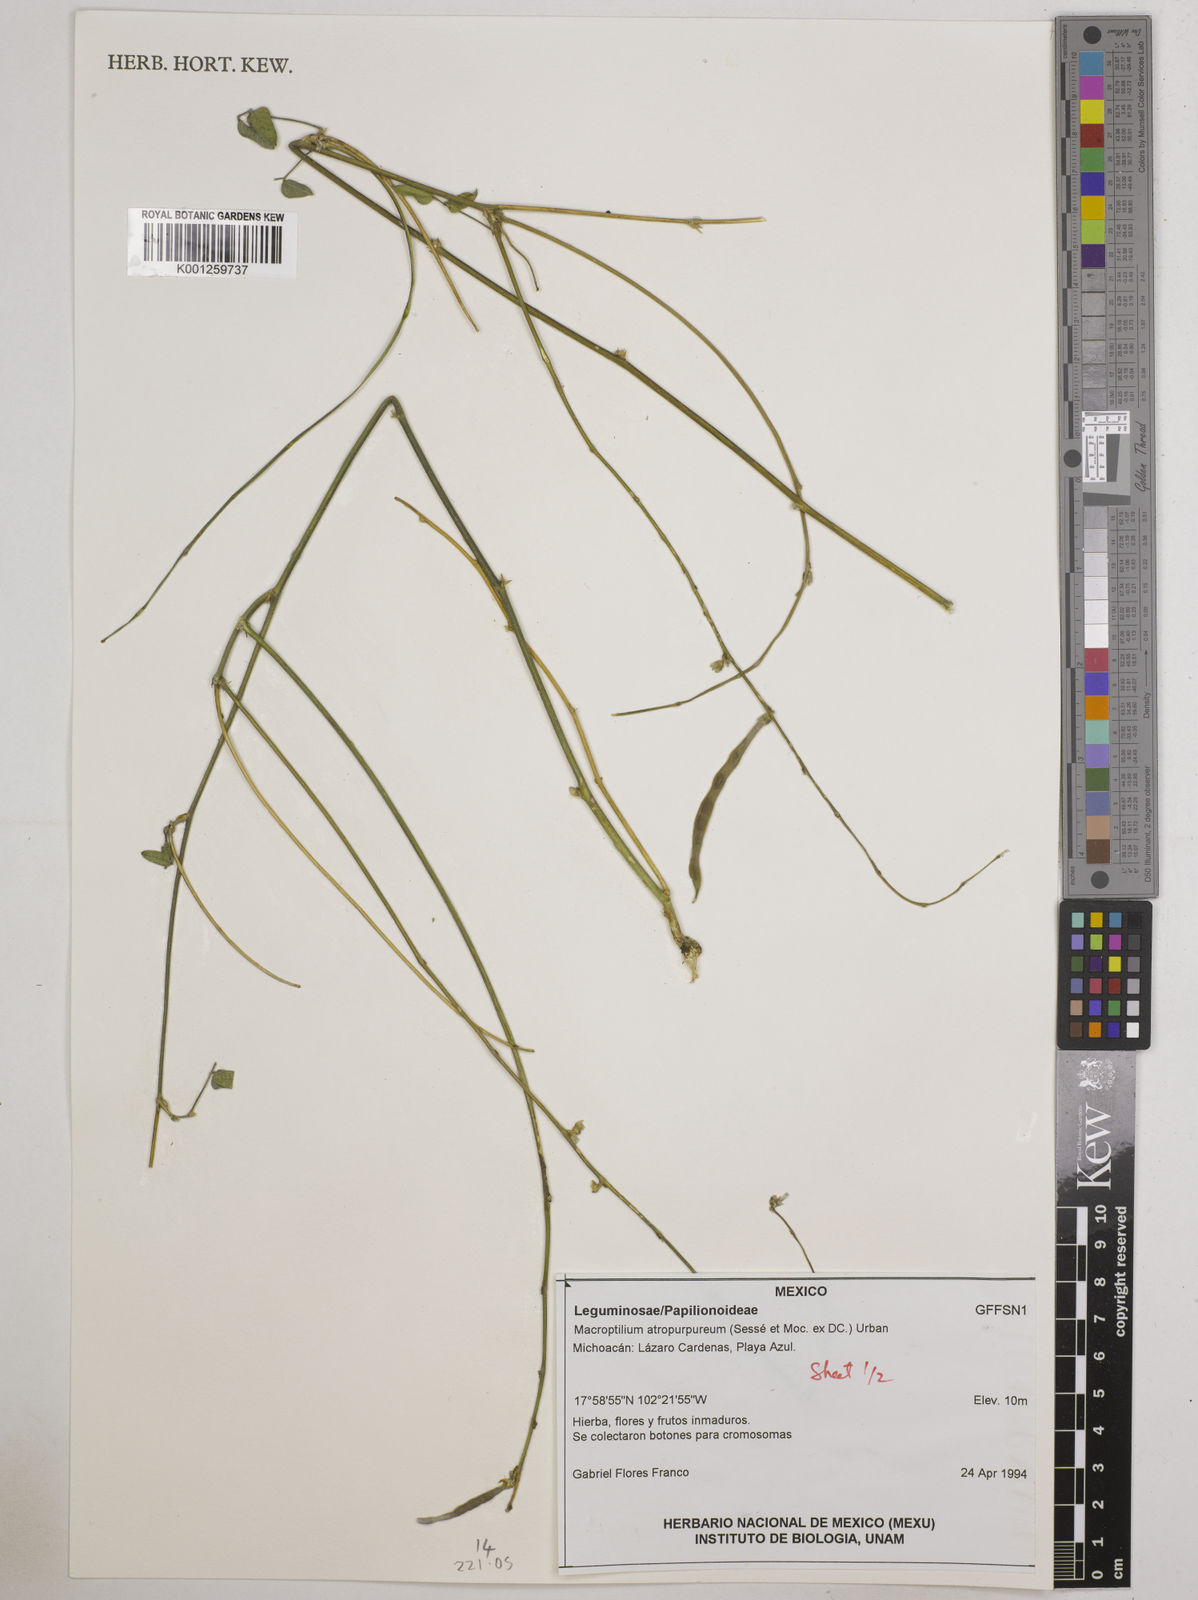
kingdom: Plantae
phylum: Tracheophyta
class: Magnoliopsida
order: Fabales
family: Fabaceae
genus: Macroptilium
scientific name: Macroptilium atropurpureum
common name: Purple bushbean
